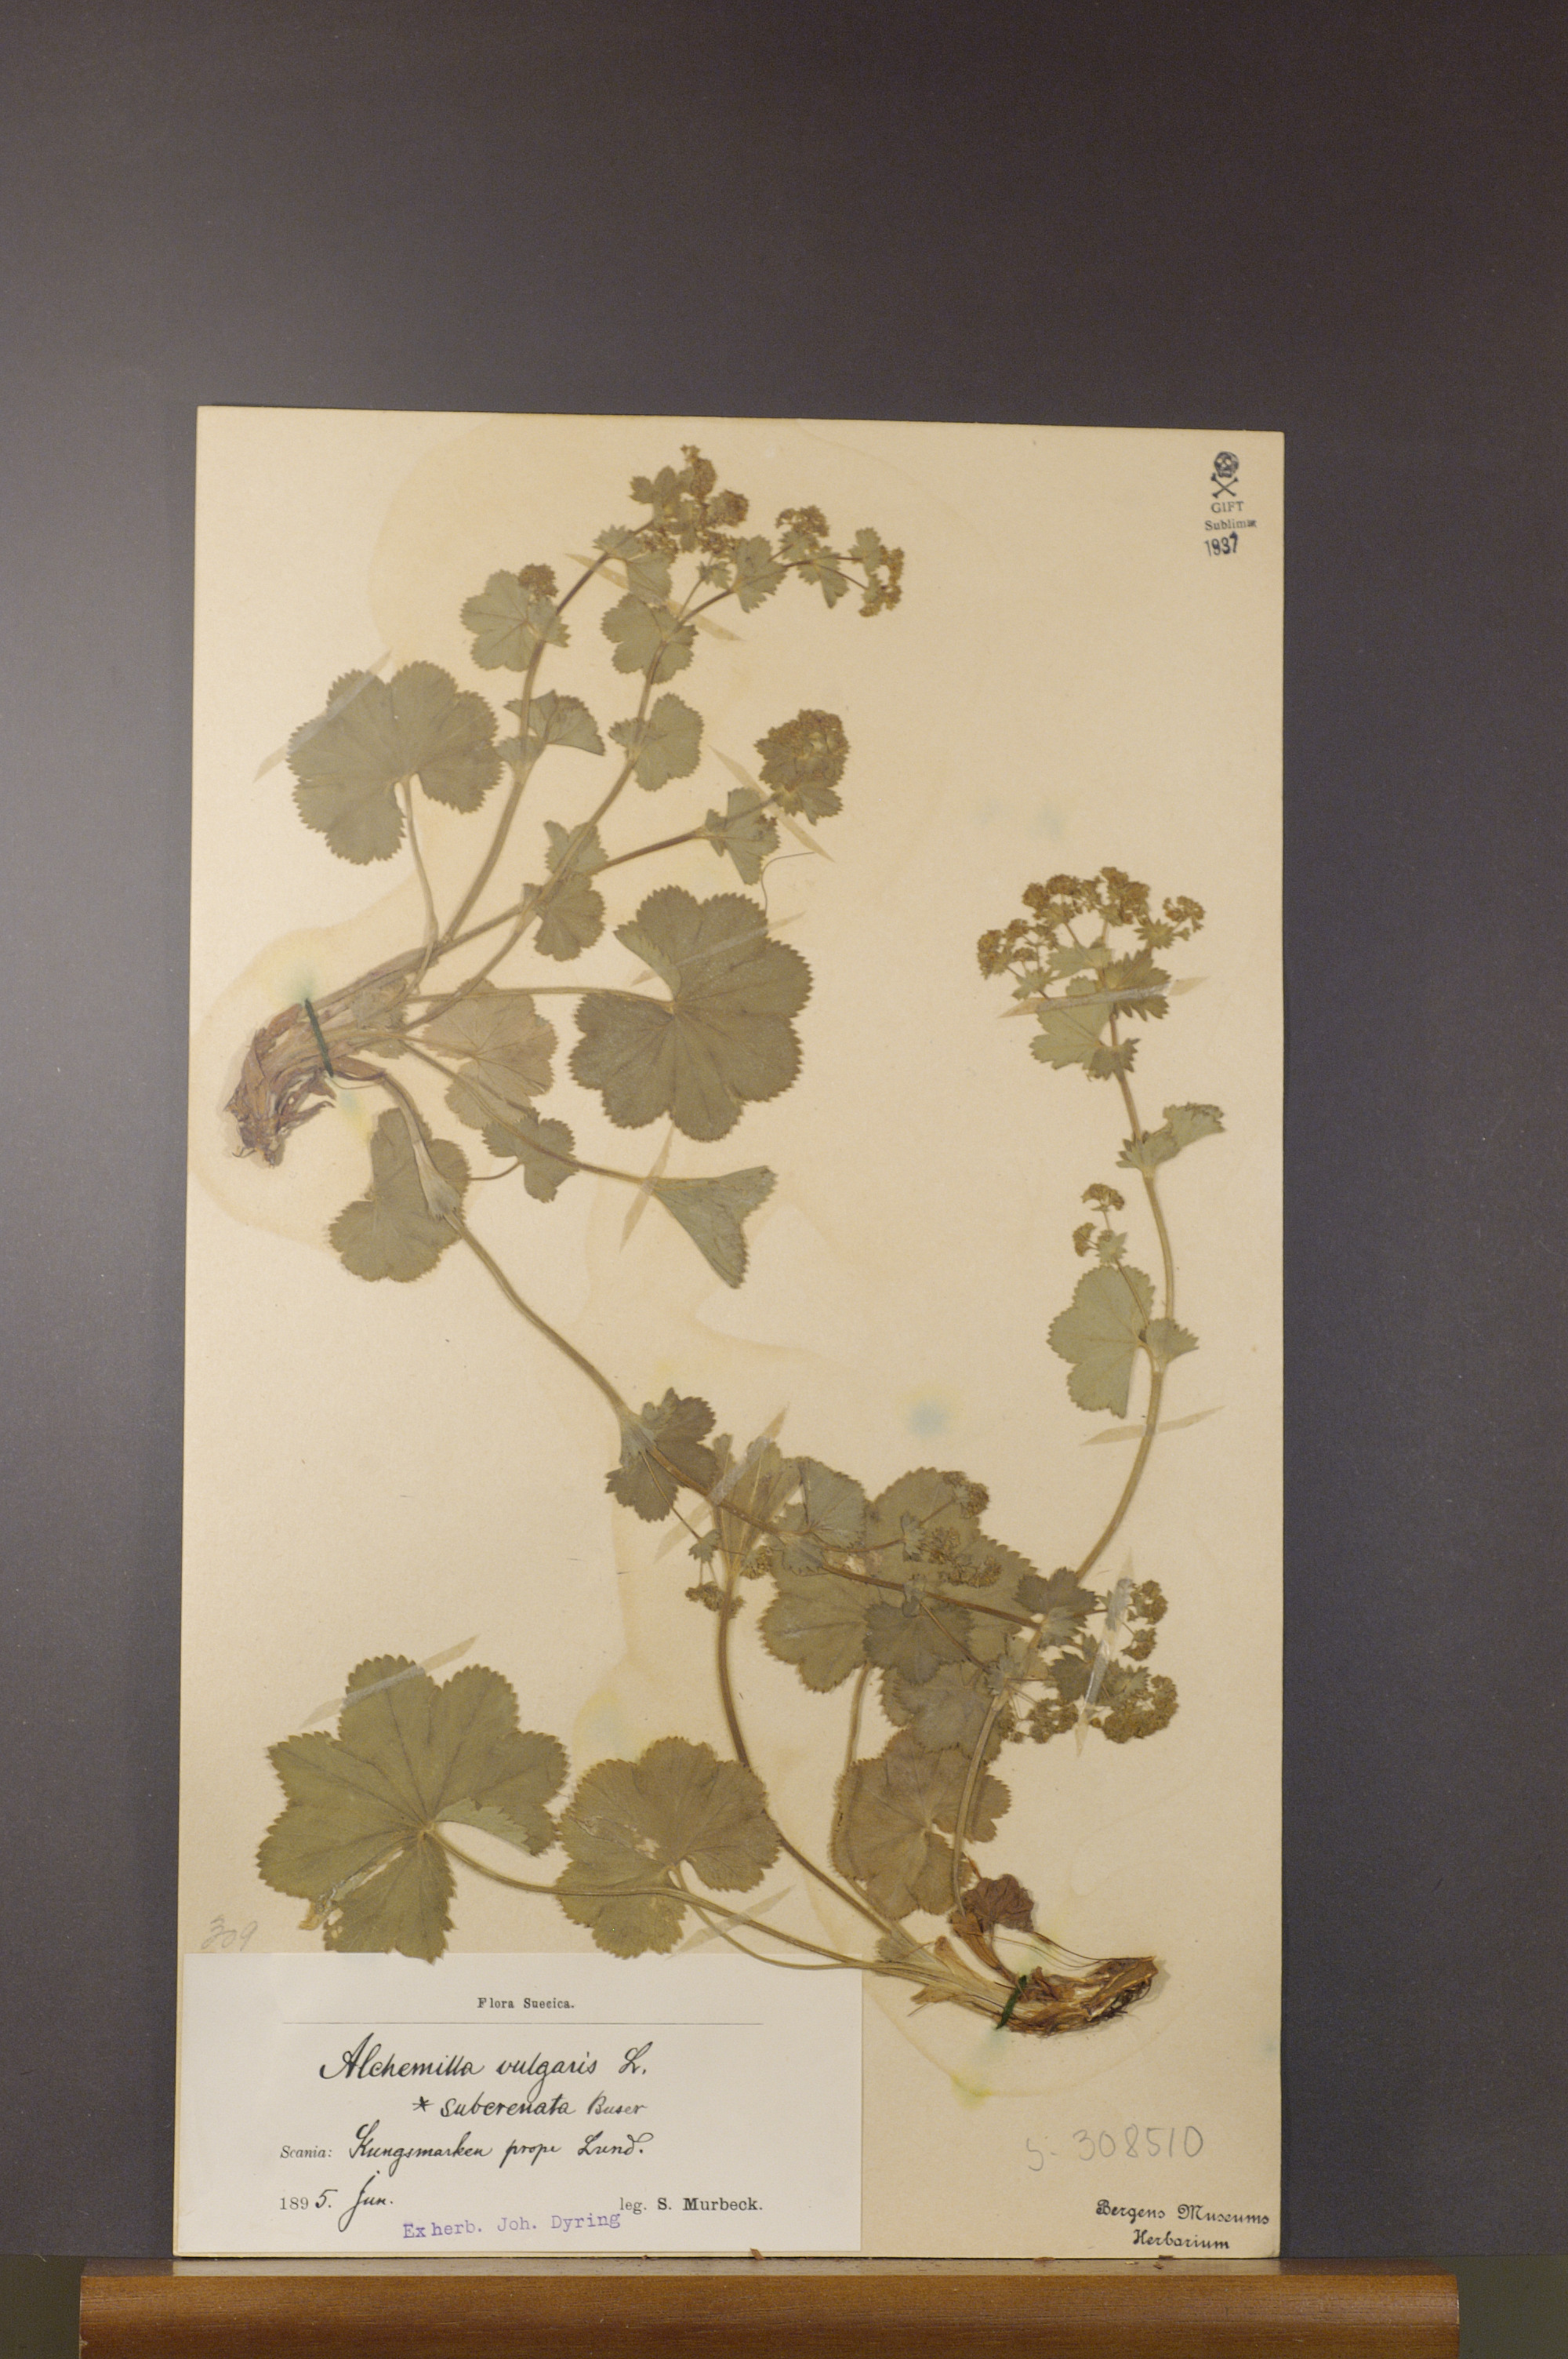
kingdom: Plantae
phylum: Tracheophyta
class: Magnoliopsida
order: Rosales
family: Rosaceae
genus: Alchemilla
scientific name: Alchemilla subcrenata
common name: Broadtooth lady's mantle
